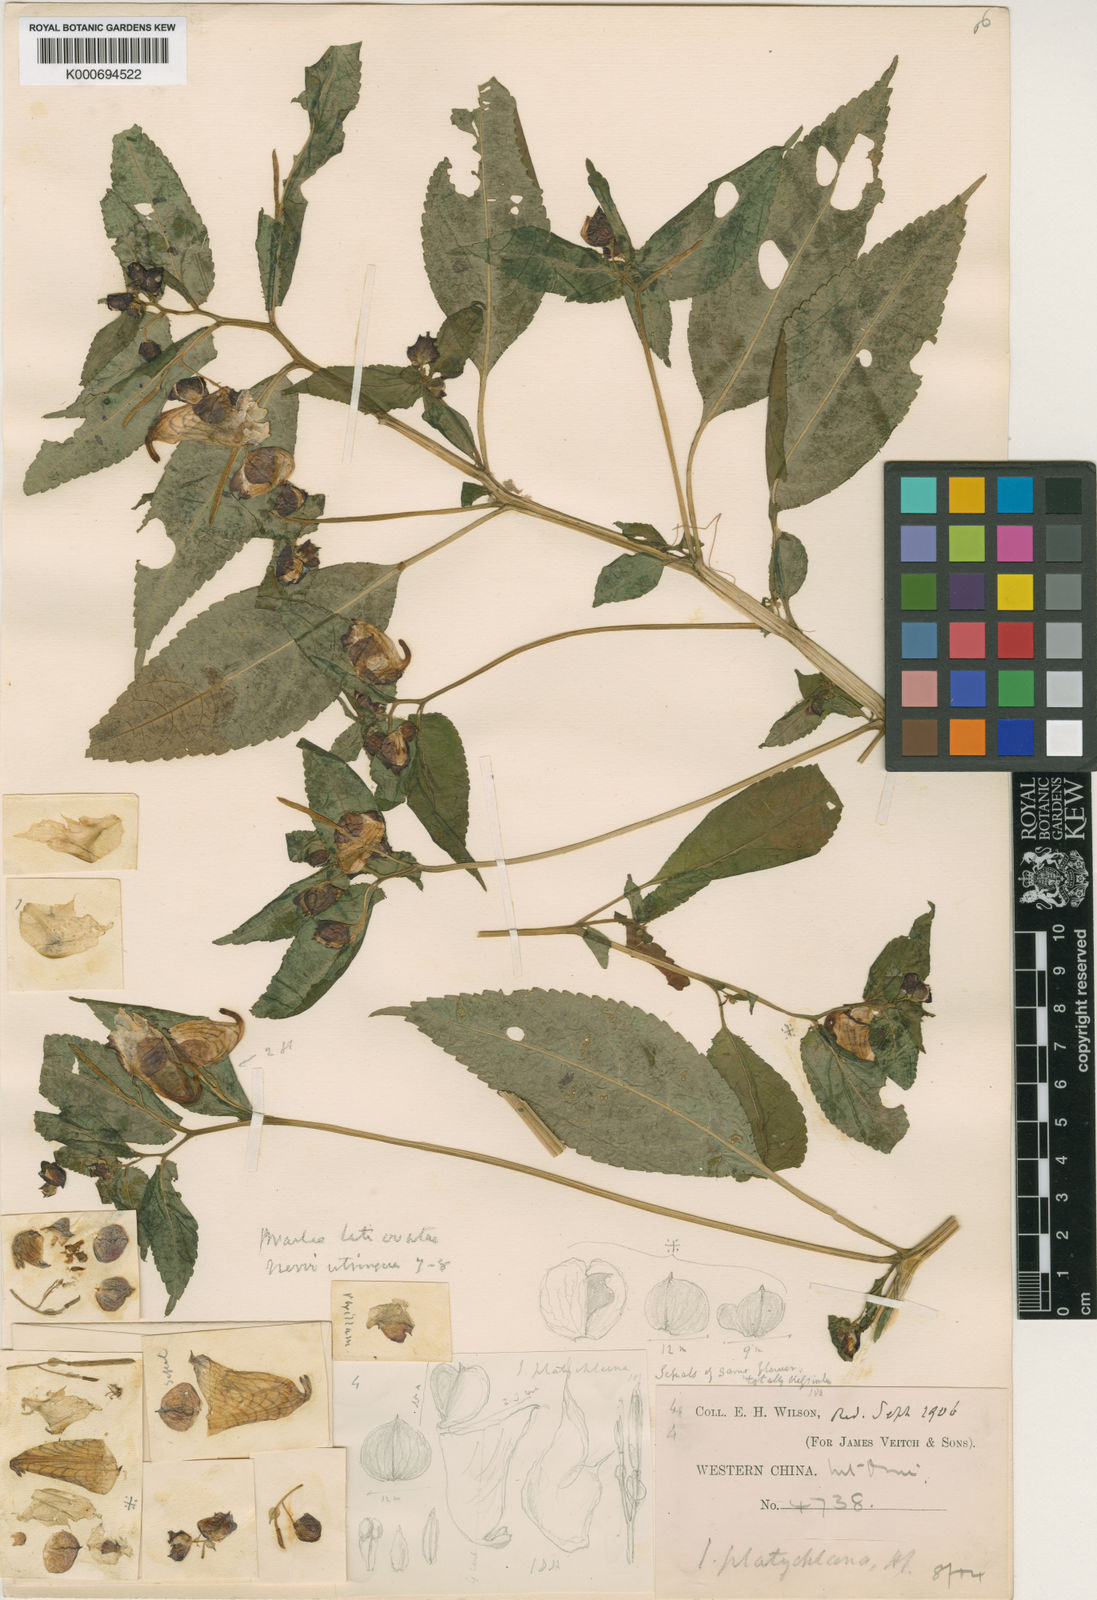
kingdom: Plantae
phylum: Tracheophyta
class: Magnoliopsida
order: Ericales
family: Balsaminaceae
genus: Impatiens
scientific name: Impatiens platychlaena
